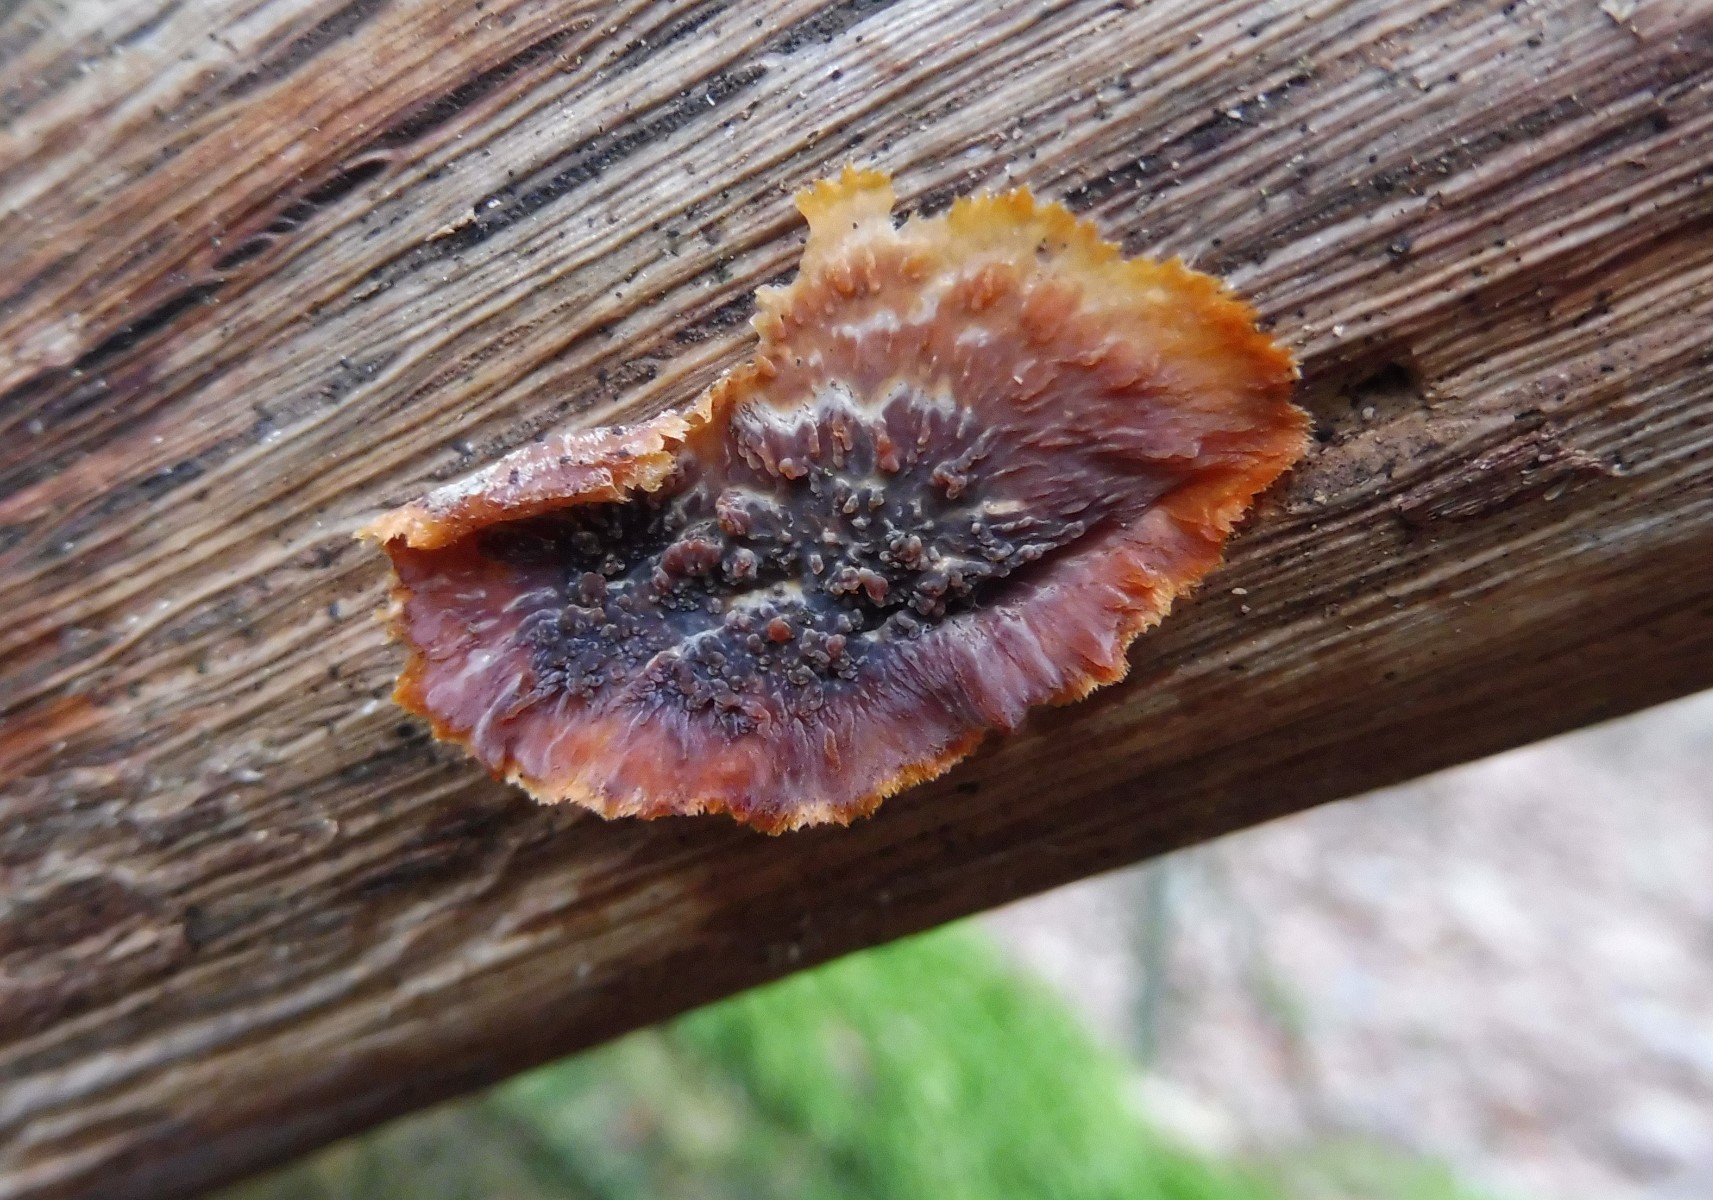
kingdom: Fungi
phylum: Basidiomycota
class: Agaricomycetes
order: Polyporales
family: Meruliaceae
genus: Phlebia
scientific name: Phlebia radiata
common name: stråle-åresvamp
